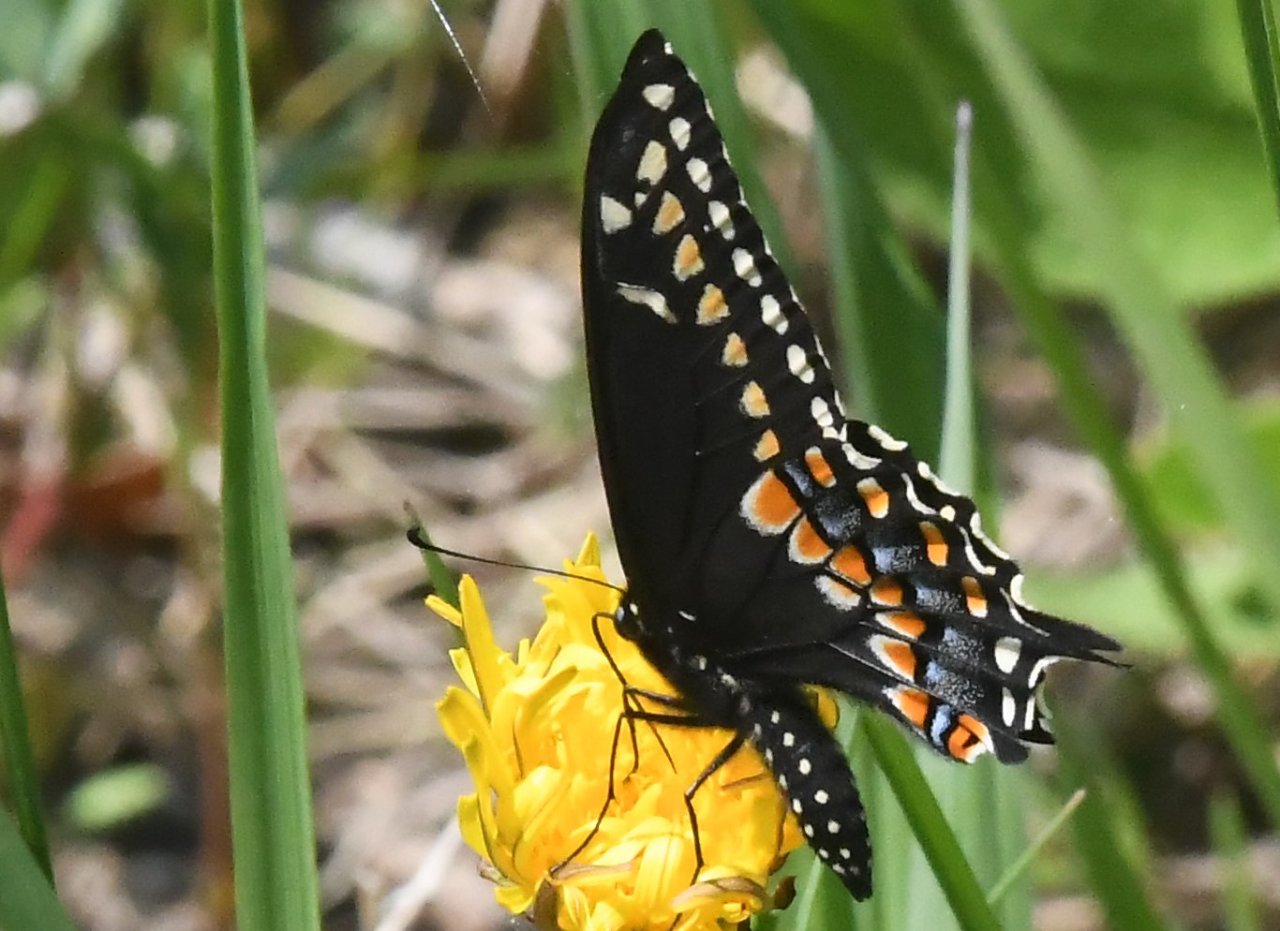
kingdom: Animalia
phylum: Arthropoda
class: Insecta
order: Lepidoptera
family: Papilionidae
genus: Papilio
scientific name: Papilio polyxenes
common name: Black Swallowtail
